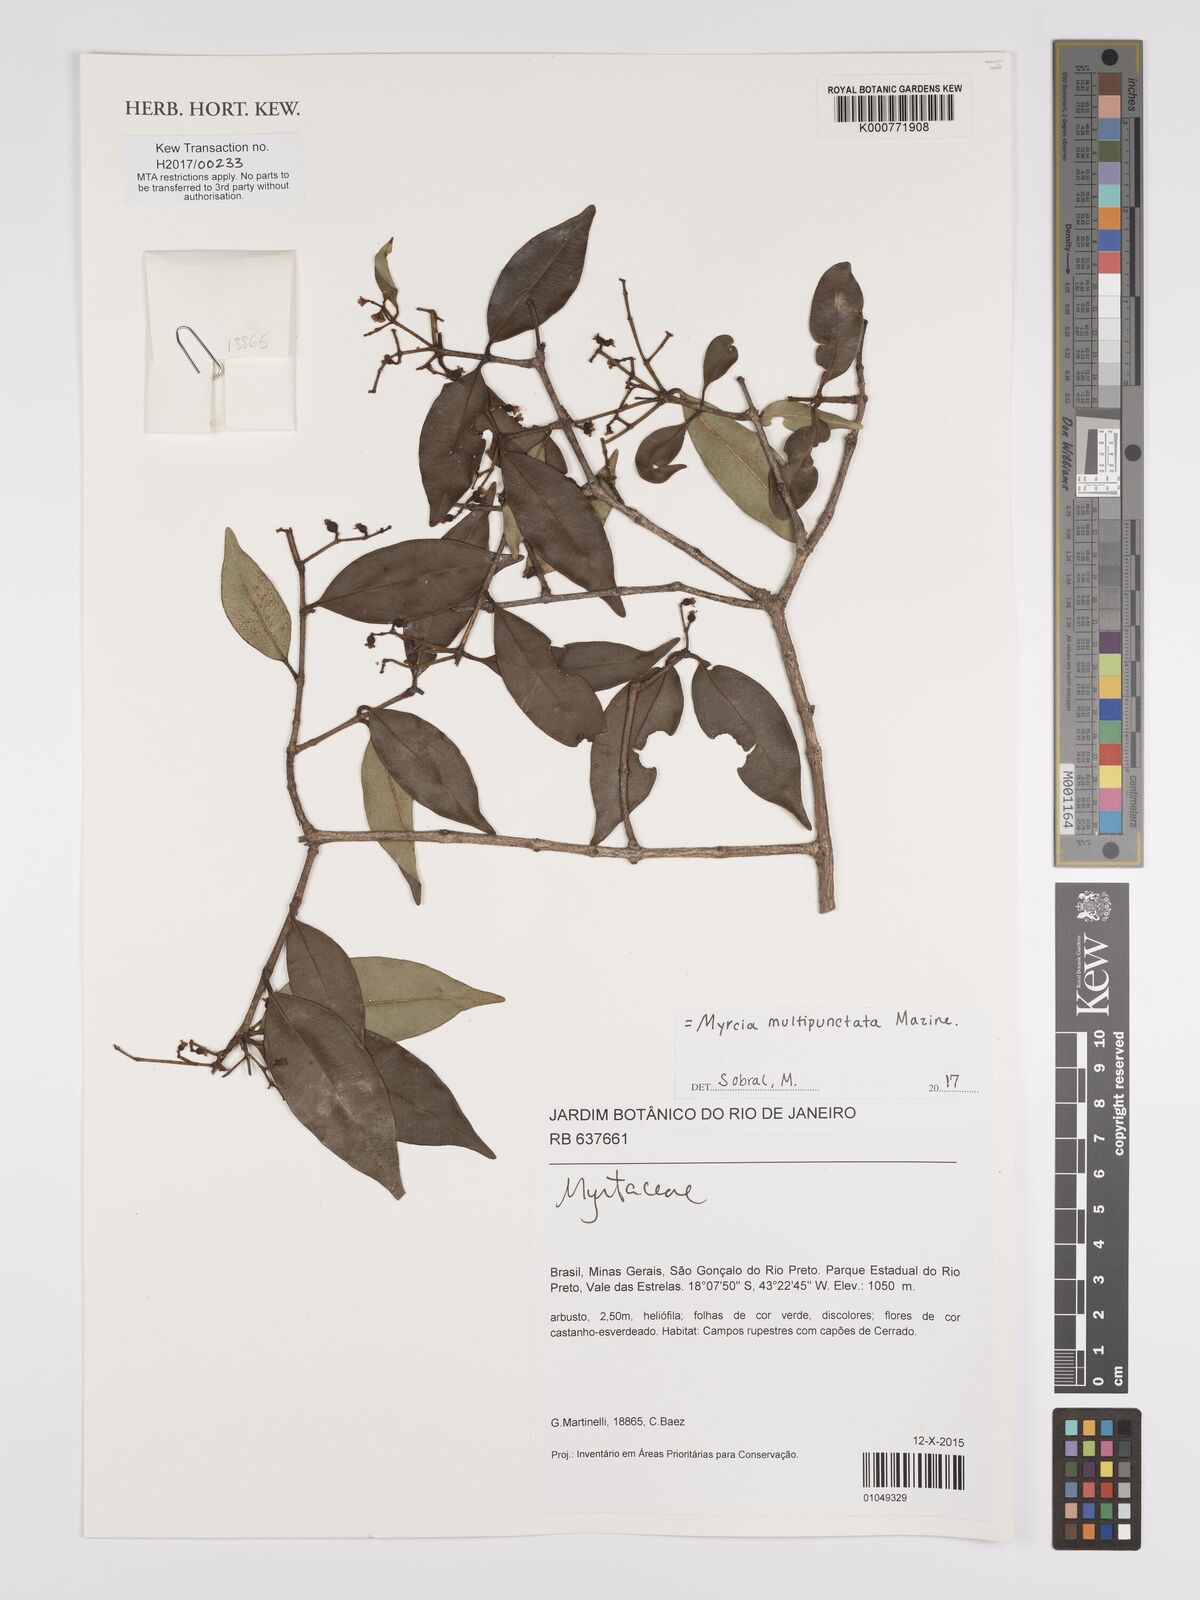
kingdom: Plantae
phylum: Tracheophyta
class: Magnoliopsida
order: Myrtales
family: Myrtaceae
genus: Myrcia
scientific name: Myrcia multipunctata
